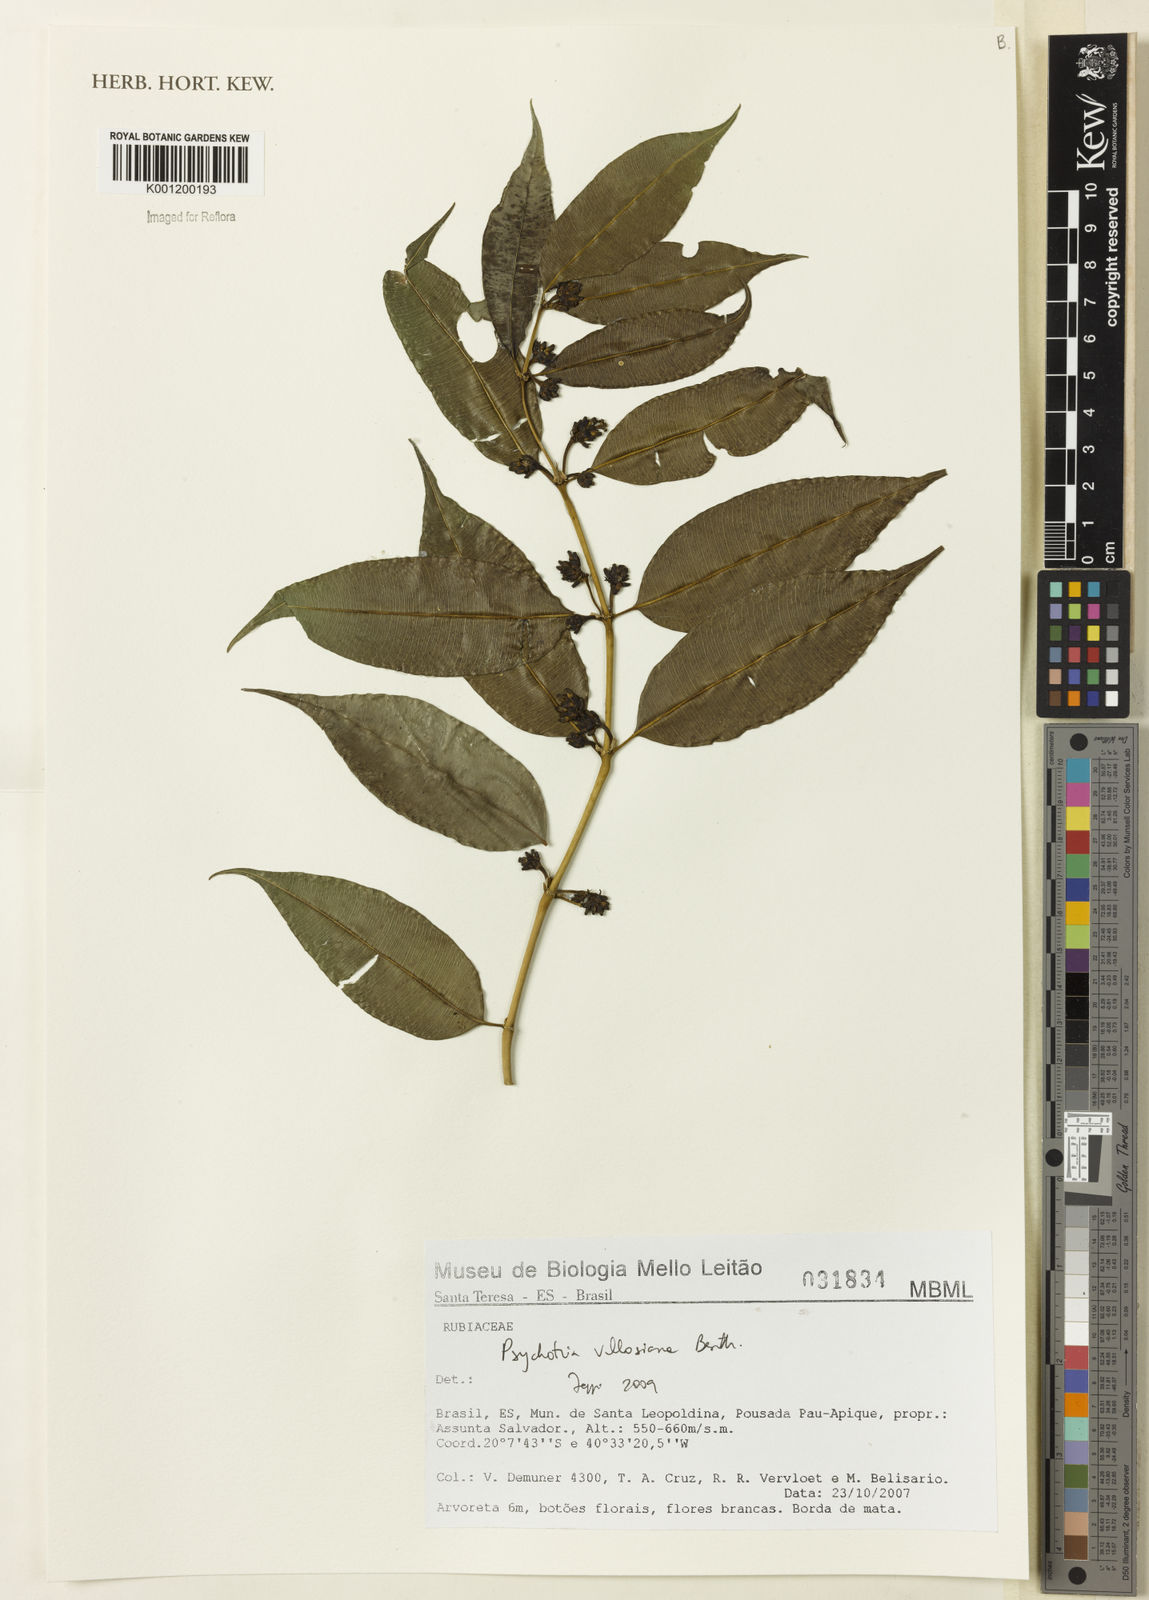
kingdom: Plantae
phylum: Tracheophyta
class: Magnoliopsida
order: Gentianales
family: Rubiaceae
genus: Palicourea
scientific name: Palicourea sessilis
